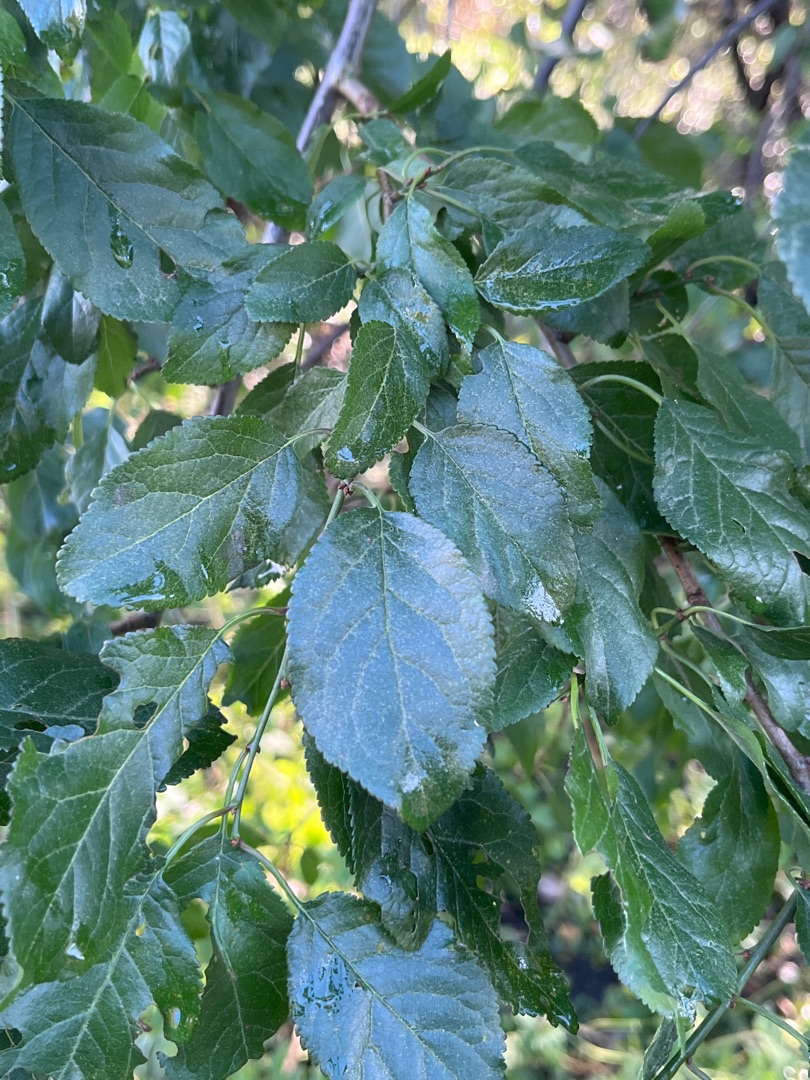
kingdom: Plantae
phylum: Tracheophyta
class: Magnoliopsida
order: Rosales
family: Rosaceae
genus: Prunus
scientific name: Prunus cerasifera
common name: Mirabel
